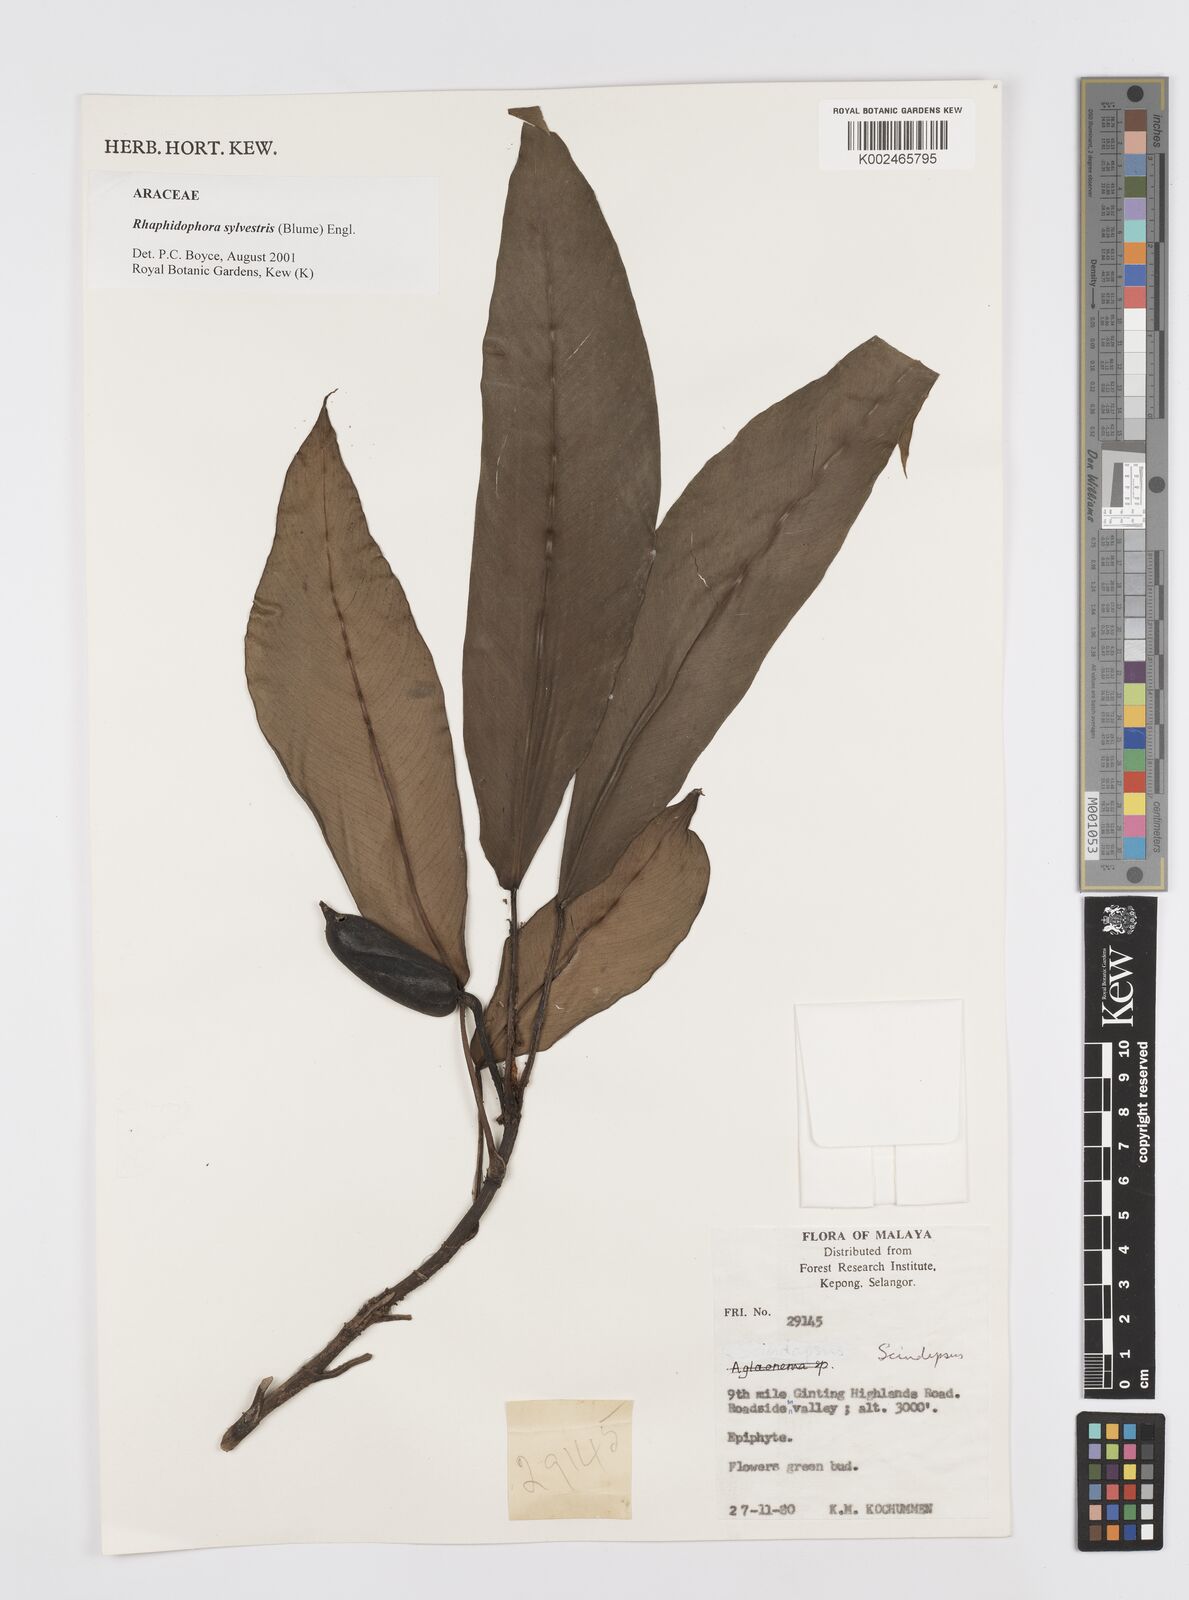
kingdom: Plantae
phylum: Tracheophyta
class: Liliopsida
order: Alismatales
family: Araceae
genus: Rhaphidophora
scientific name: Rhaphidophora sylvestris
